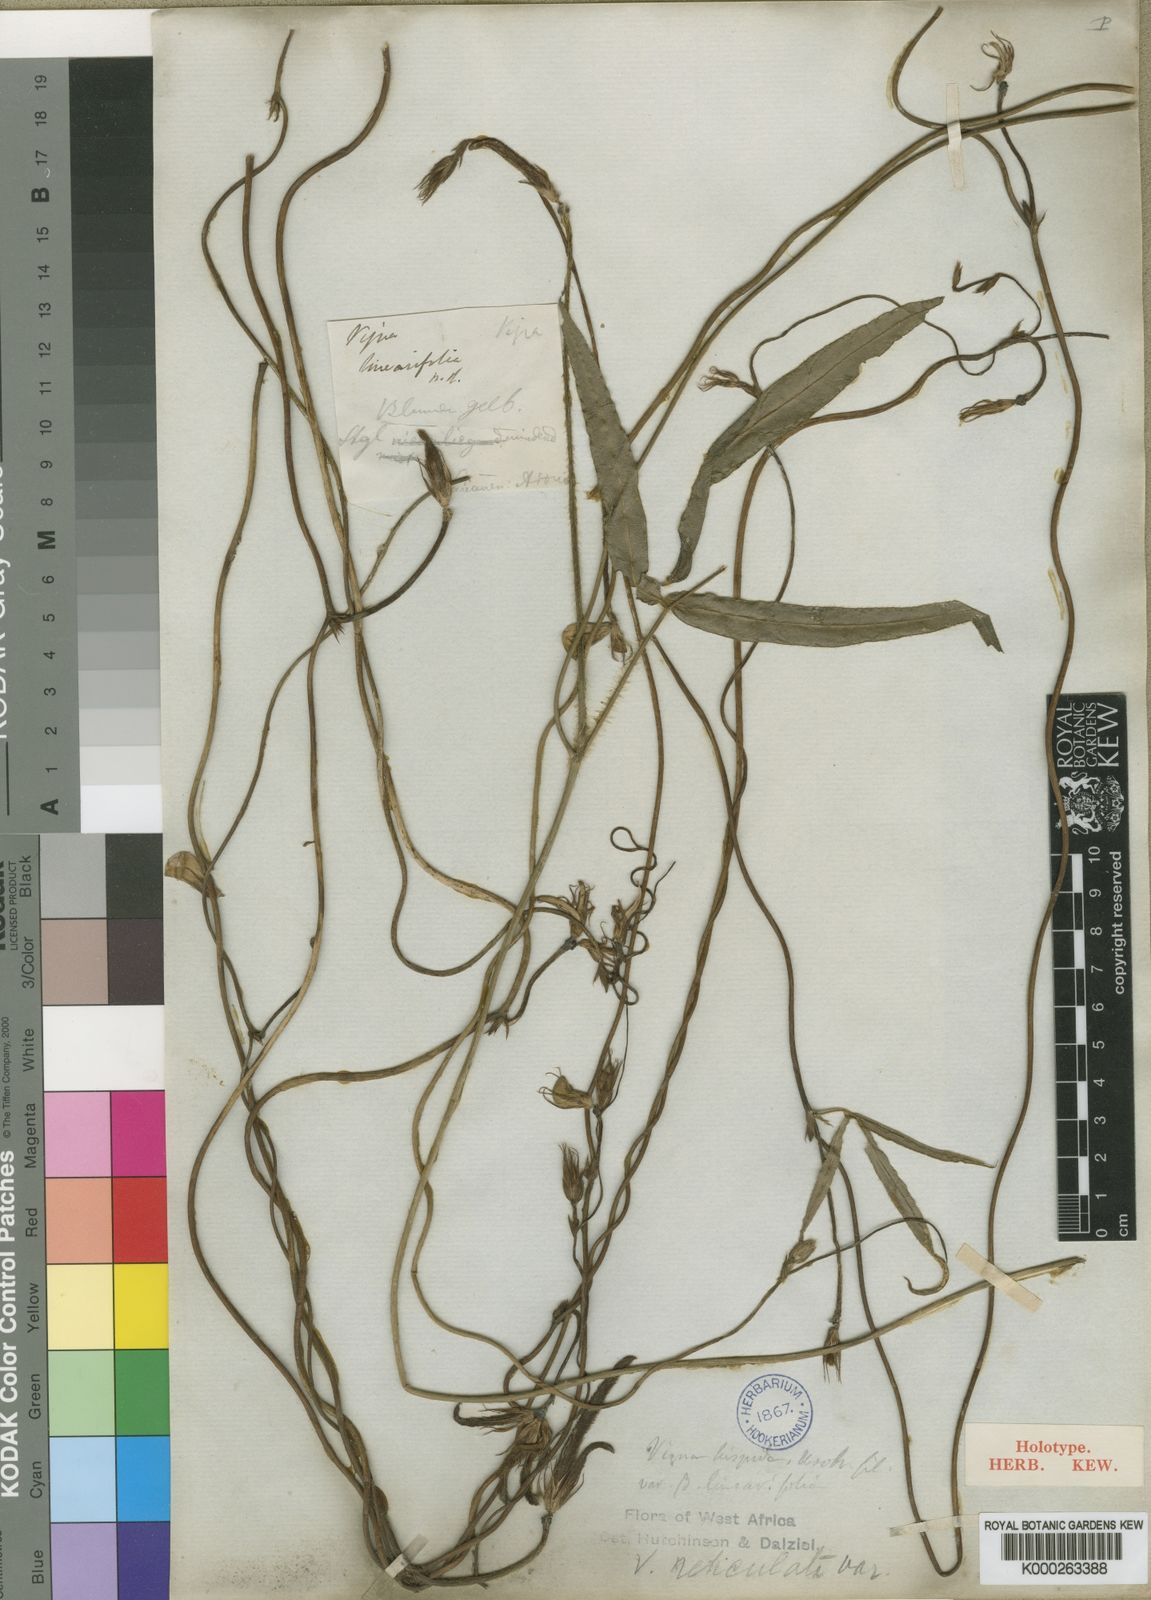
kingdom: Plantae
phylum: Tracheophyta
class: Magnoliopsida
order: Fabales
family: Fabaceae
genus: Vigna
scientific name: Vigna reticulata
